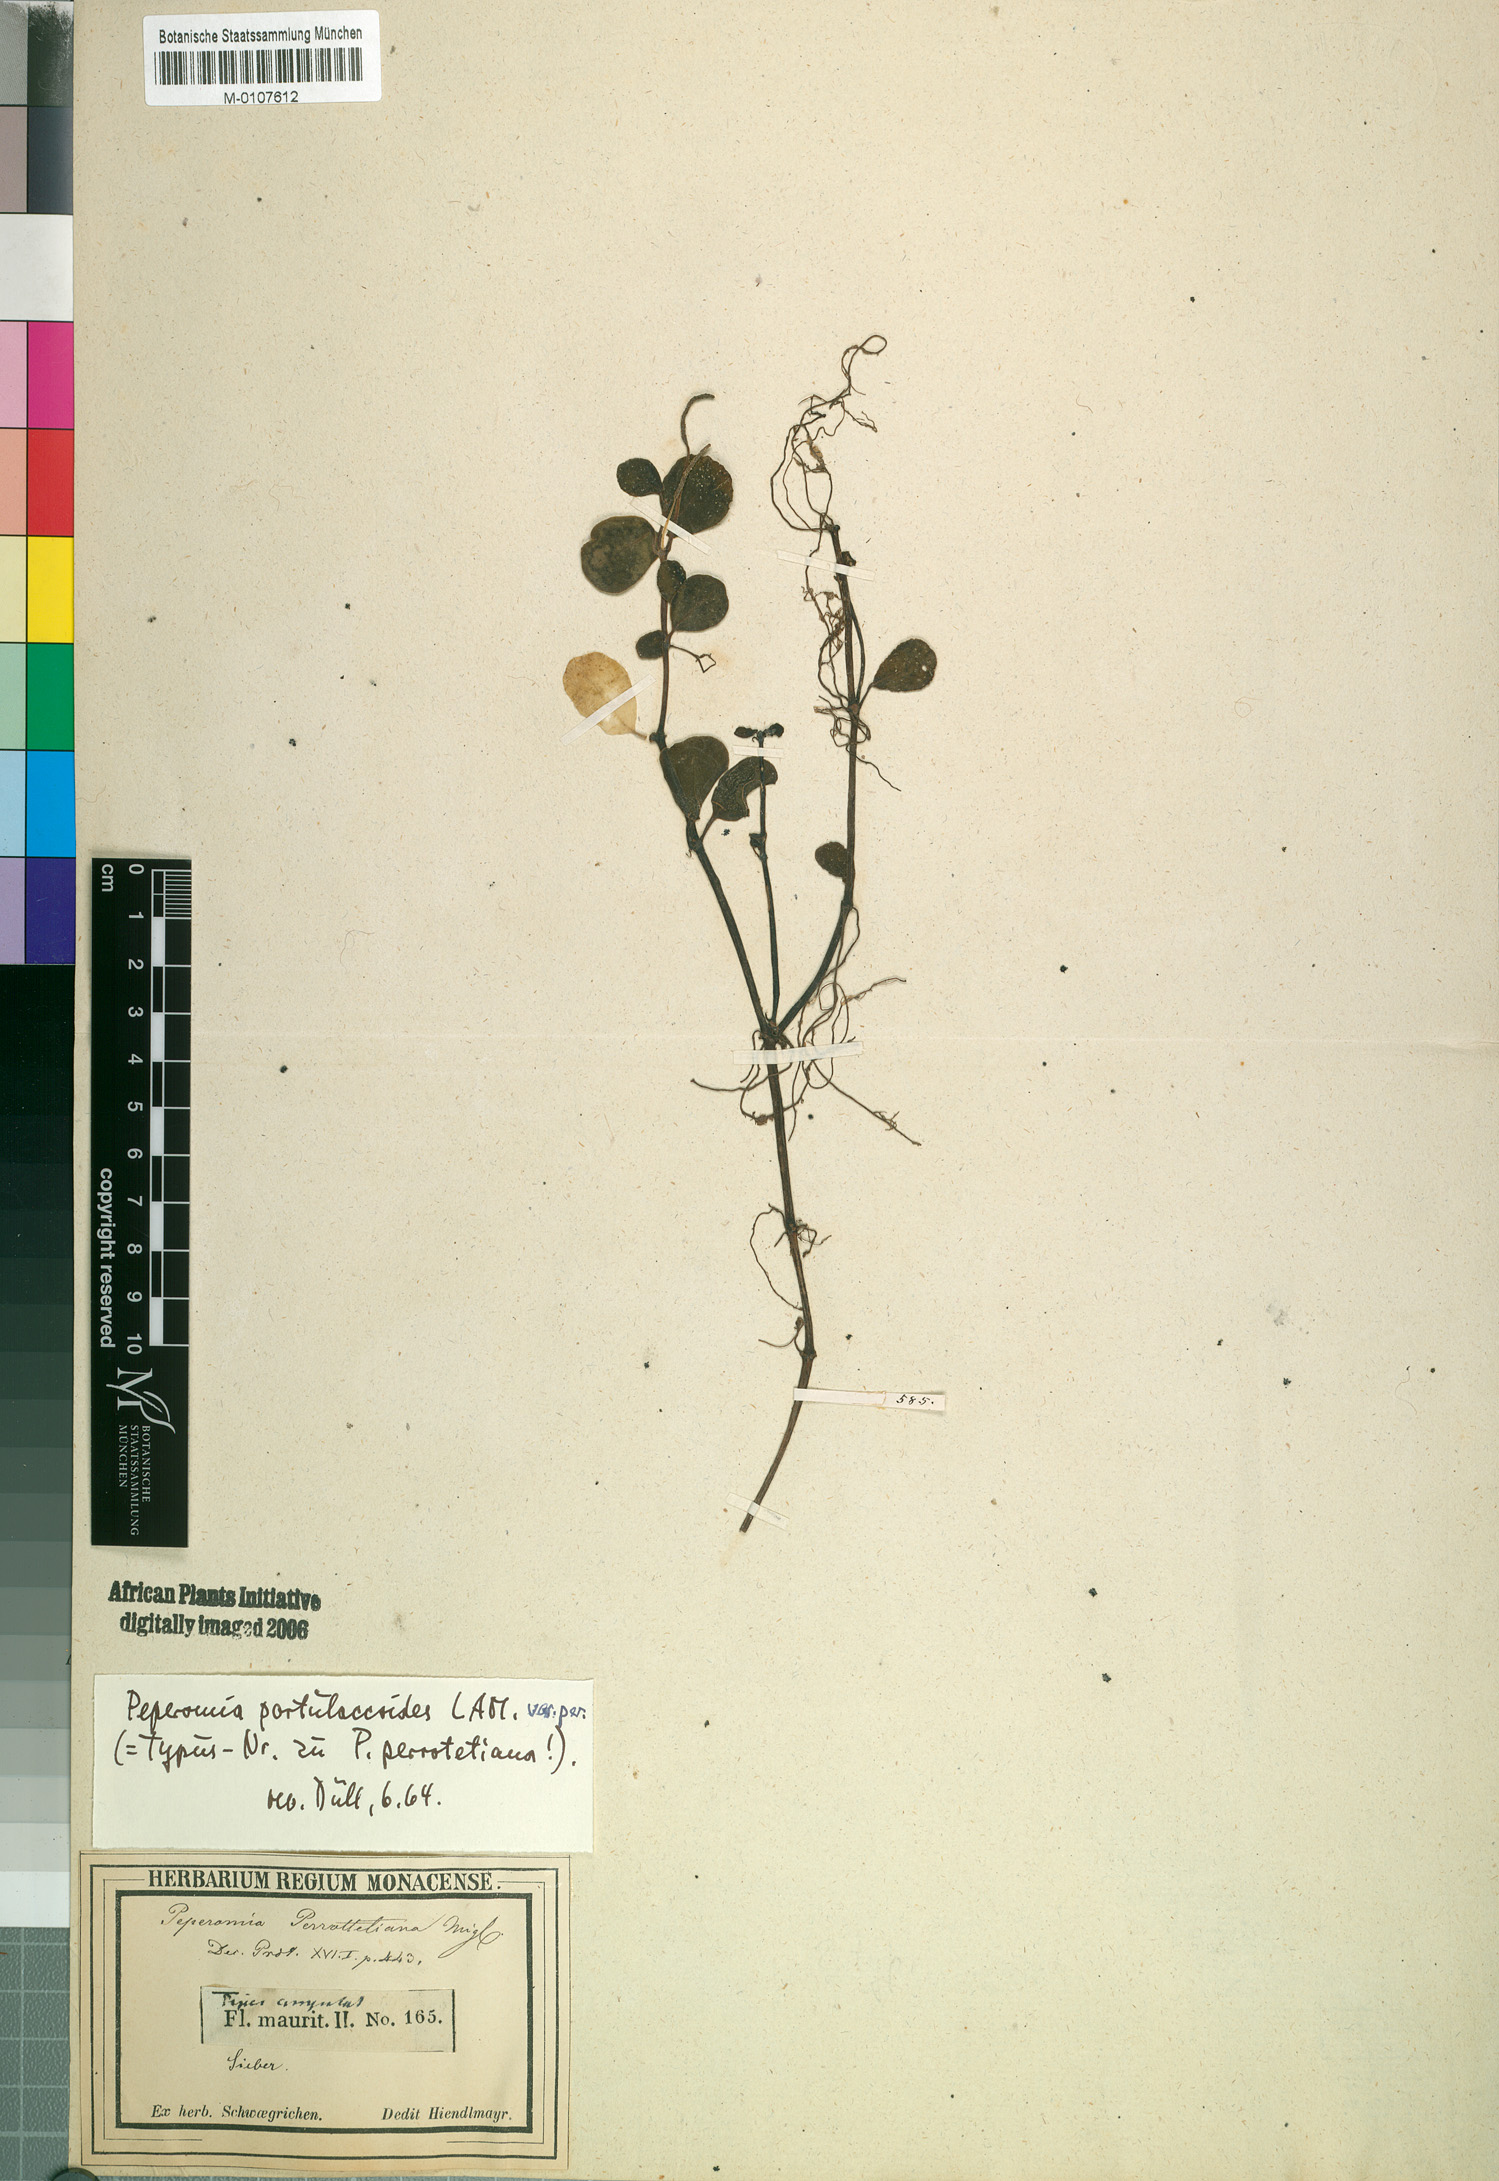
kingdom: Plantae
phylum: Tracheophyta
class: Magnoliopsida
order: Piperales
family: Piperaceae
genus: Peperomia
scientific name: Peperomia portulacoides
